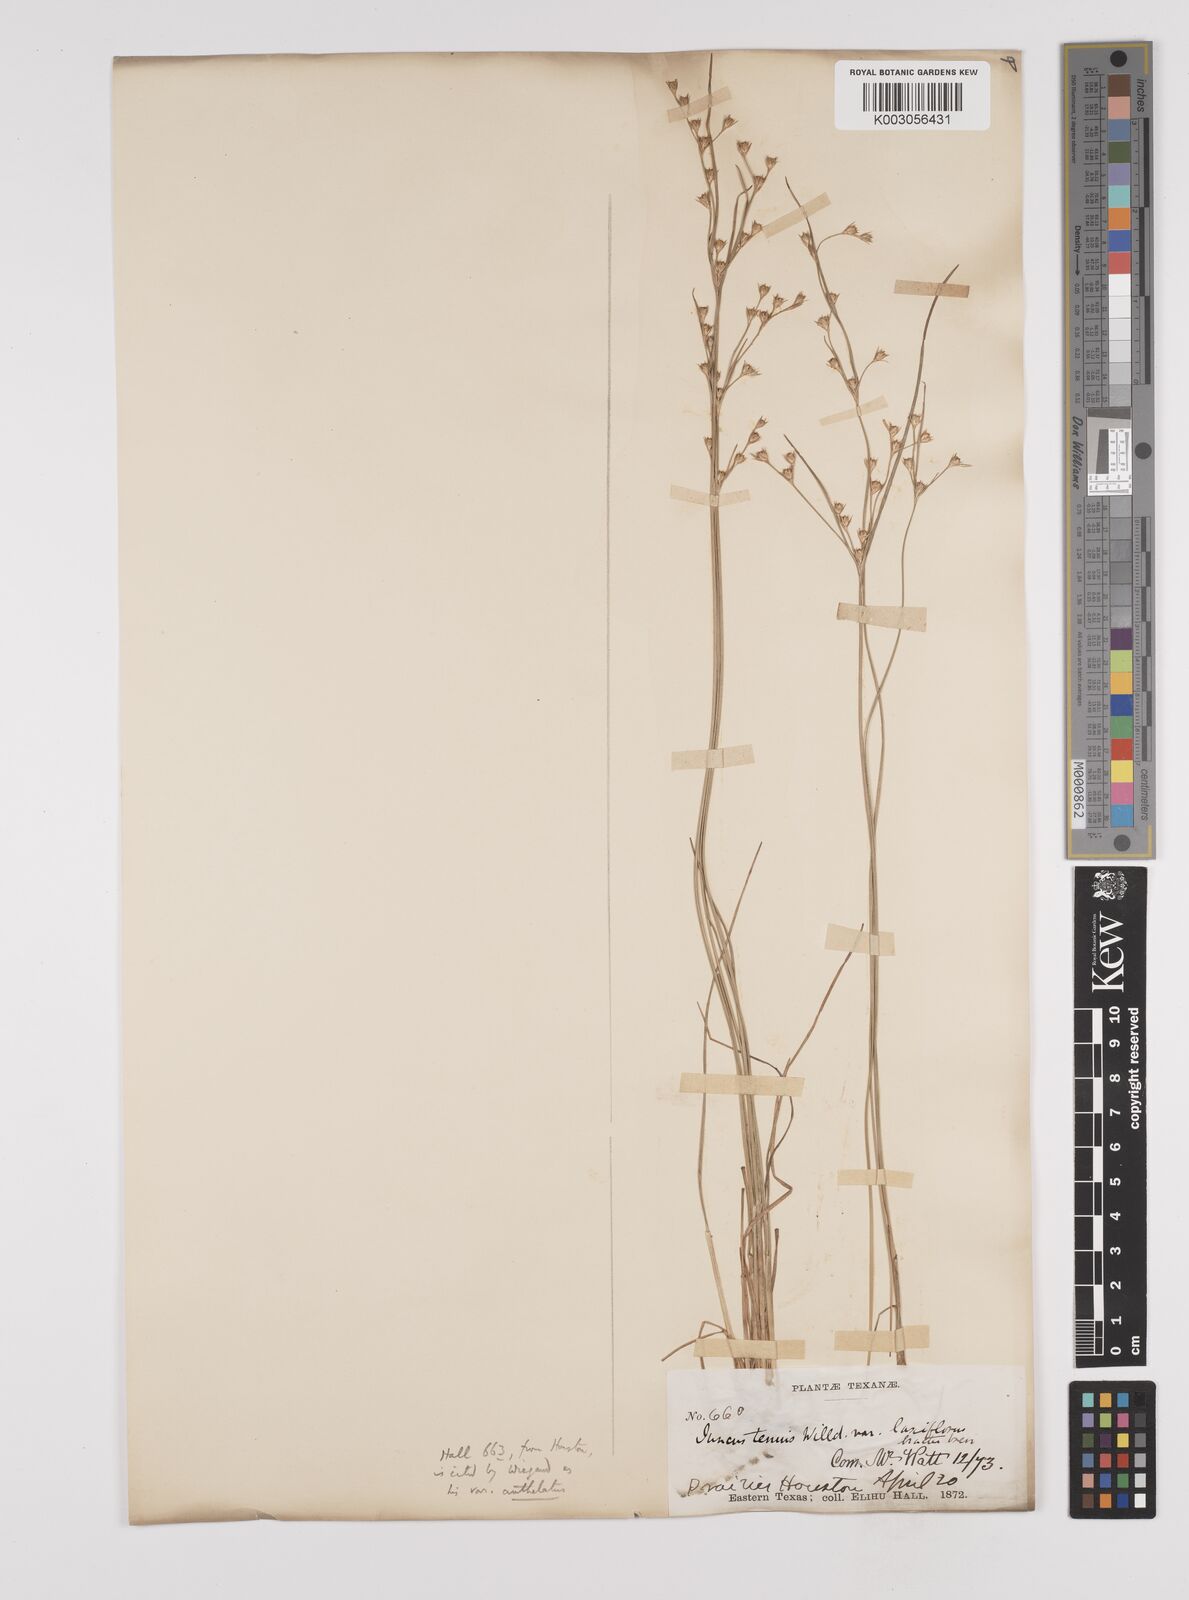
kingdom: Plantae
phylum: Tracheophyta
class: Liliopsida
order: Poales
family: Juncaceae
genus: Juncus
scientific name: Juncus anthelatus
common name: Giant path rush
